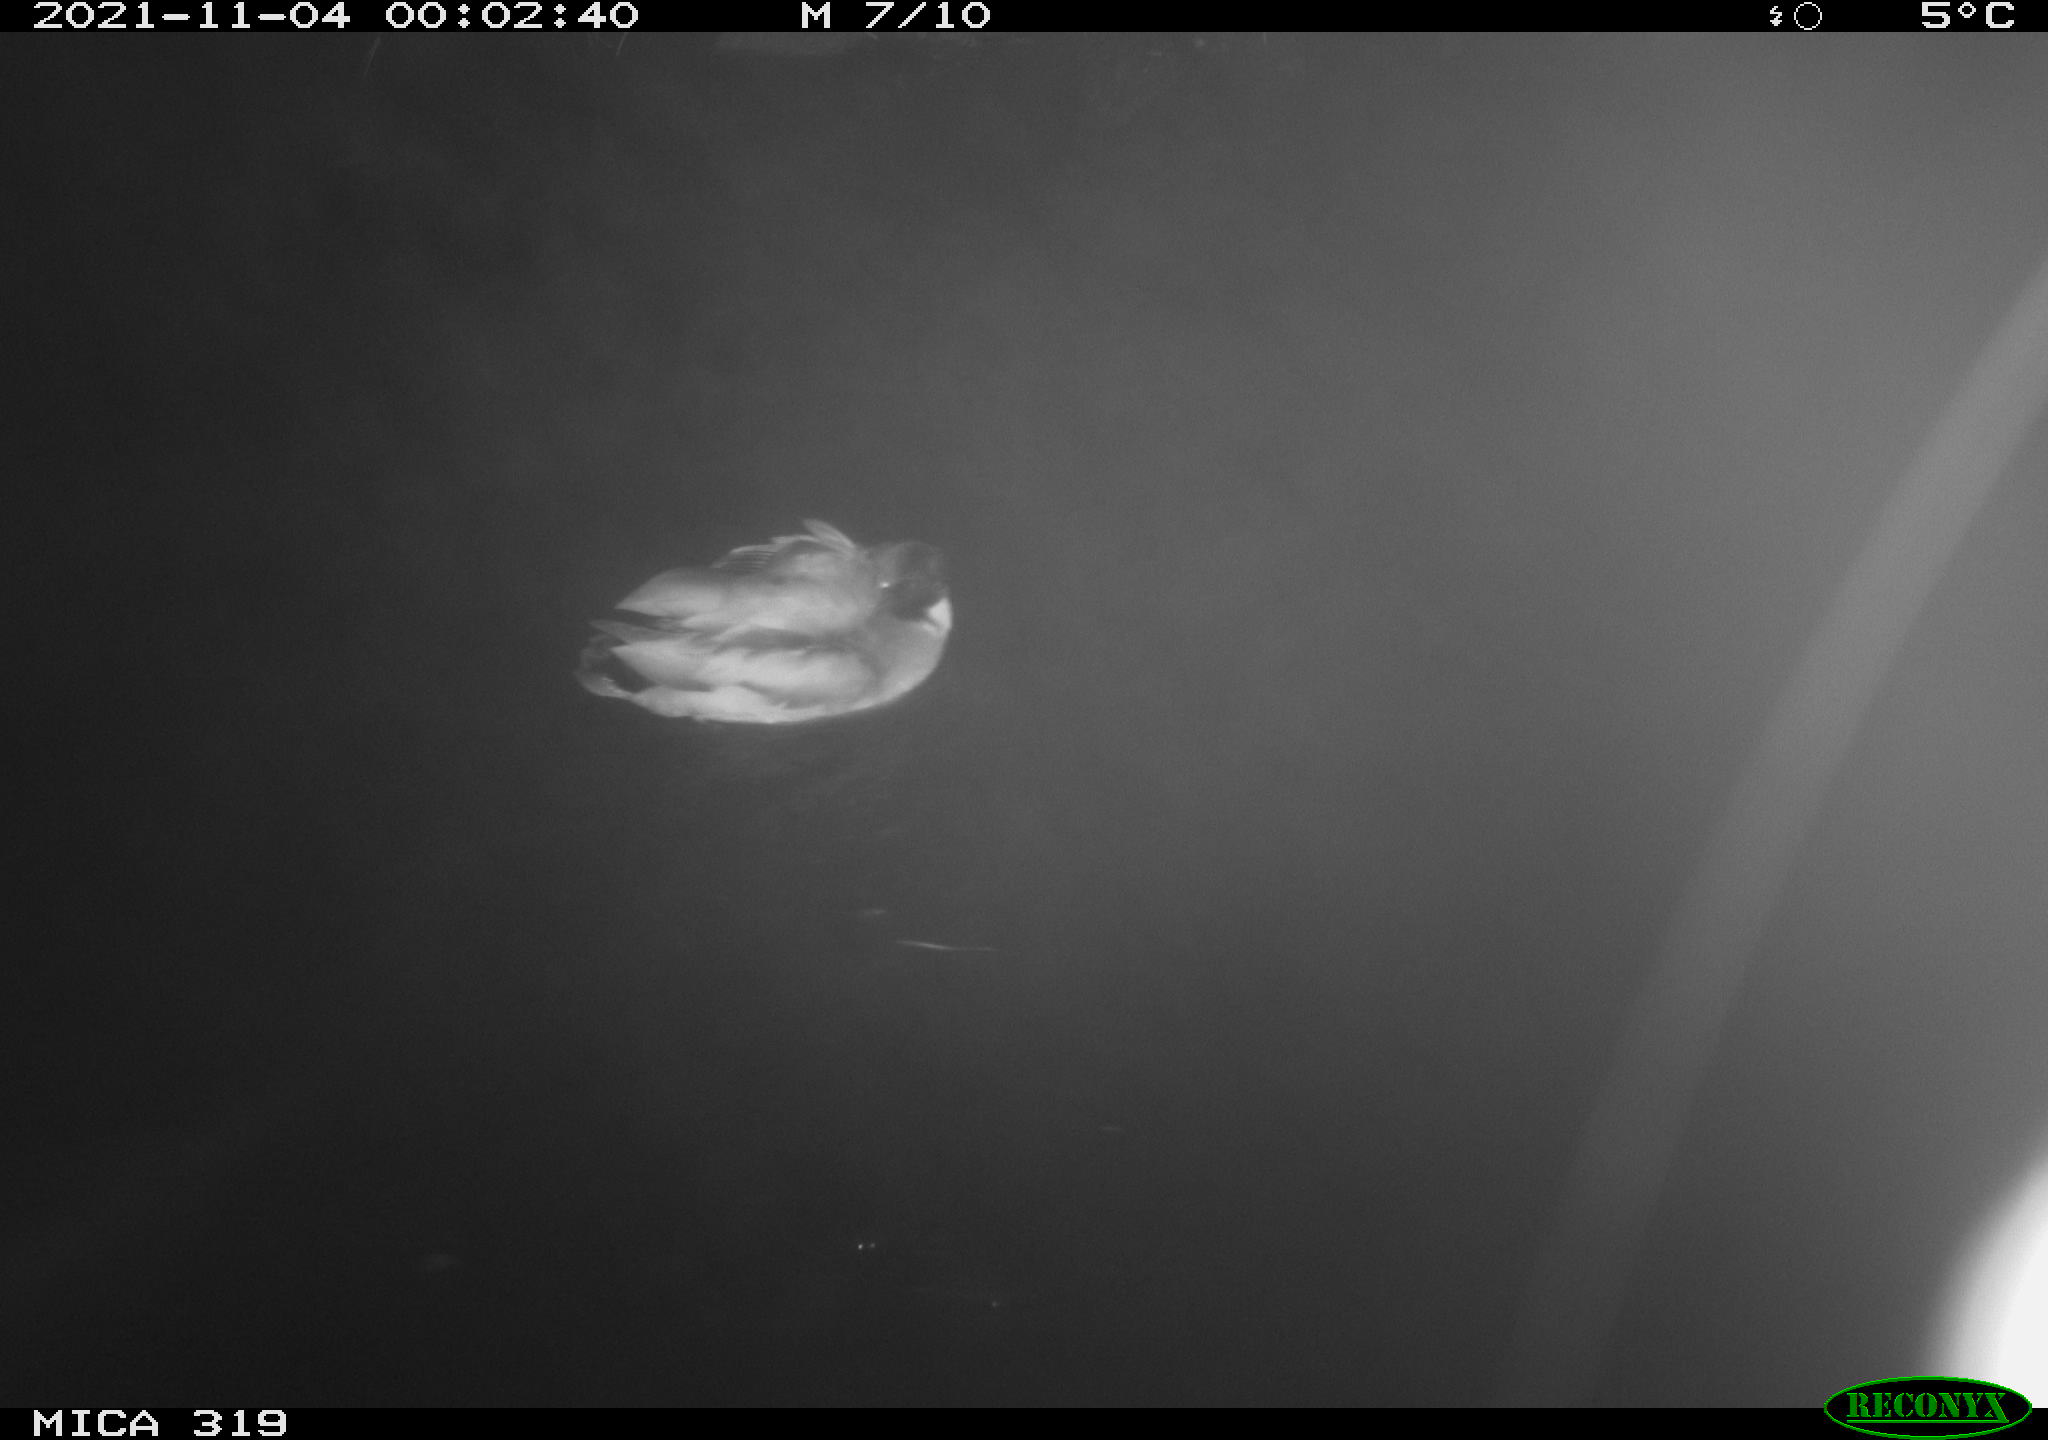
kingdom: Animalia
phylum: Chordata
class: Aves
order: Anseriformes
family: Anatidae
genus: Anas
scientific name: Anas platyrhynchos
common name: Mallard
